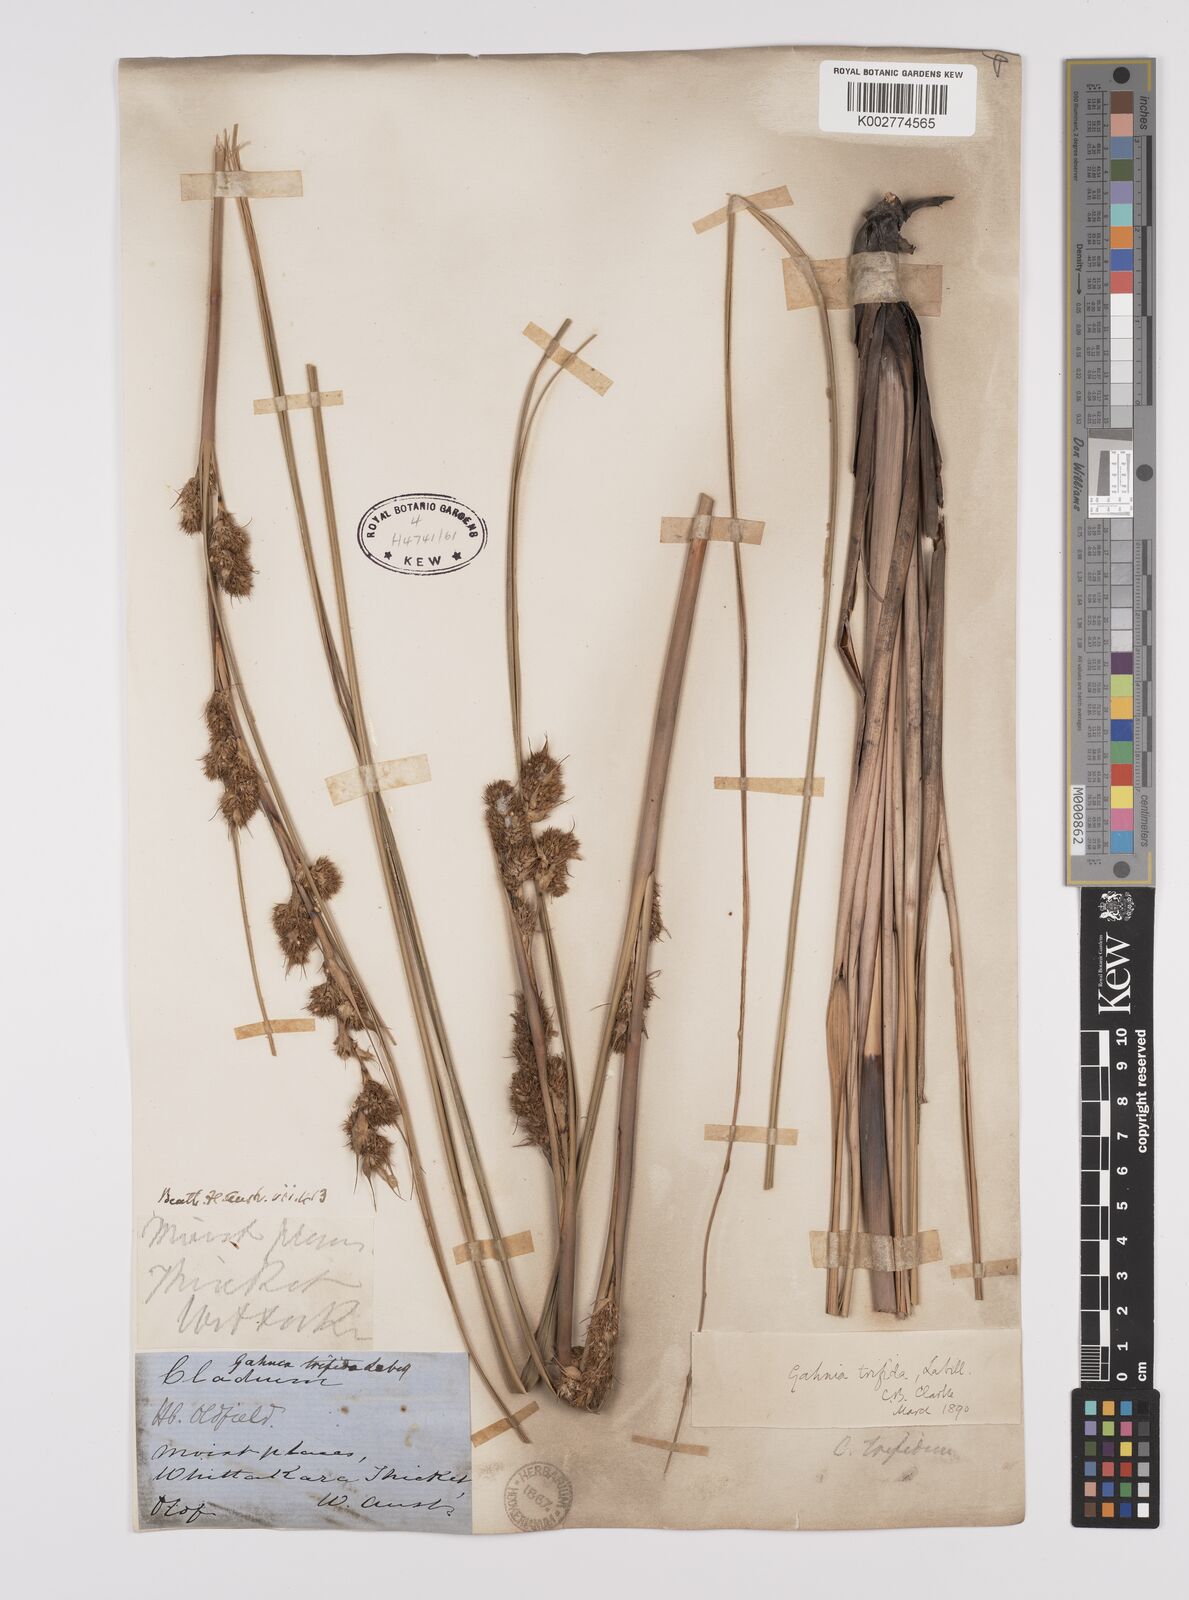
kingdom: Plantae
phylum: Tracheophyta
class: Liliopsida
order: Poales
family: Cyperaceae
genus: Gahnia
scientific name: Gahnia trifida
